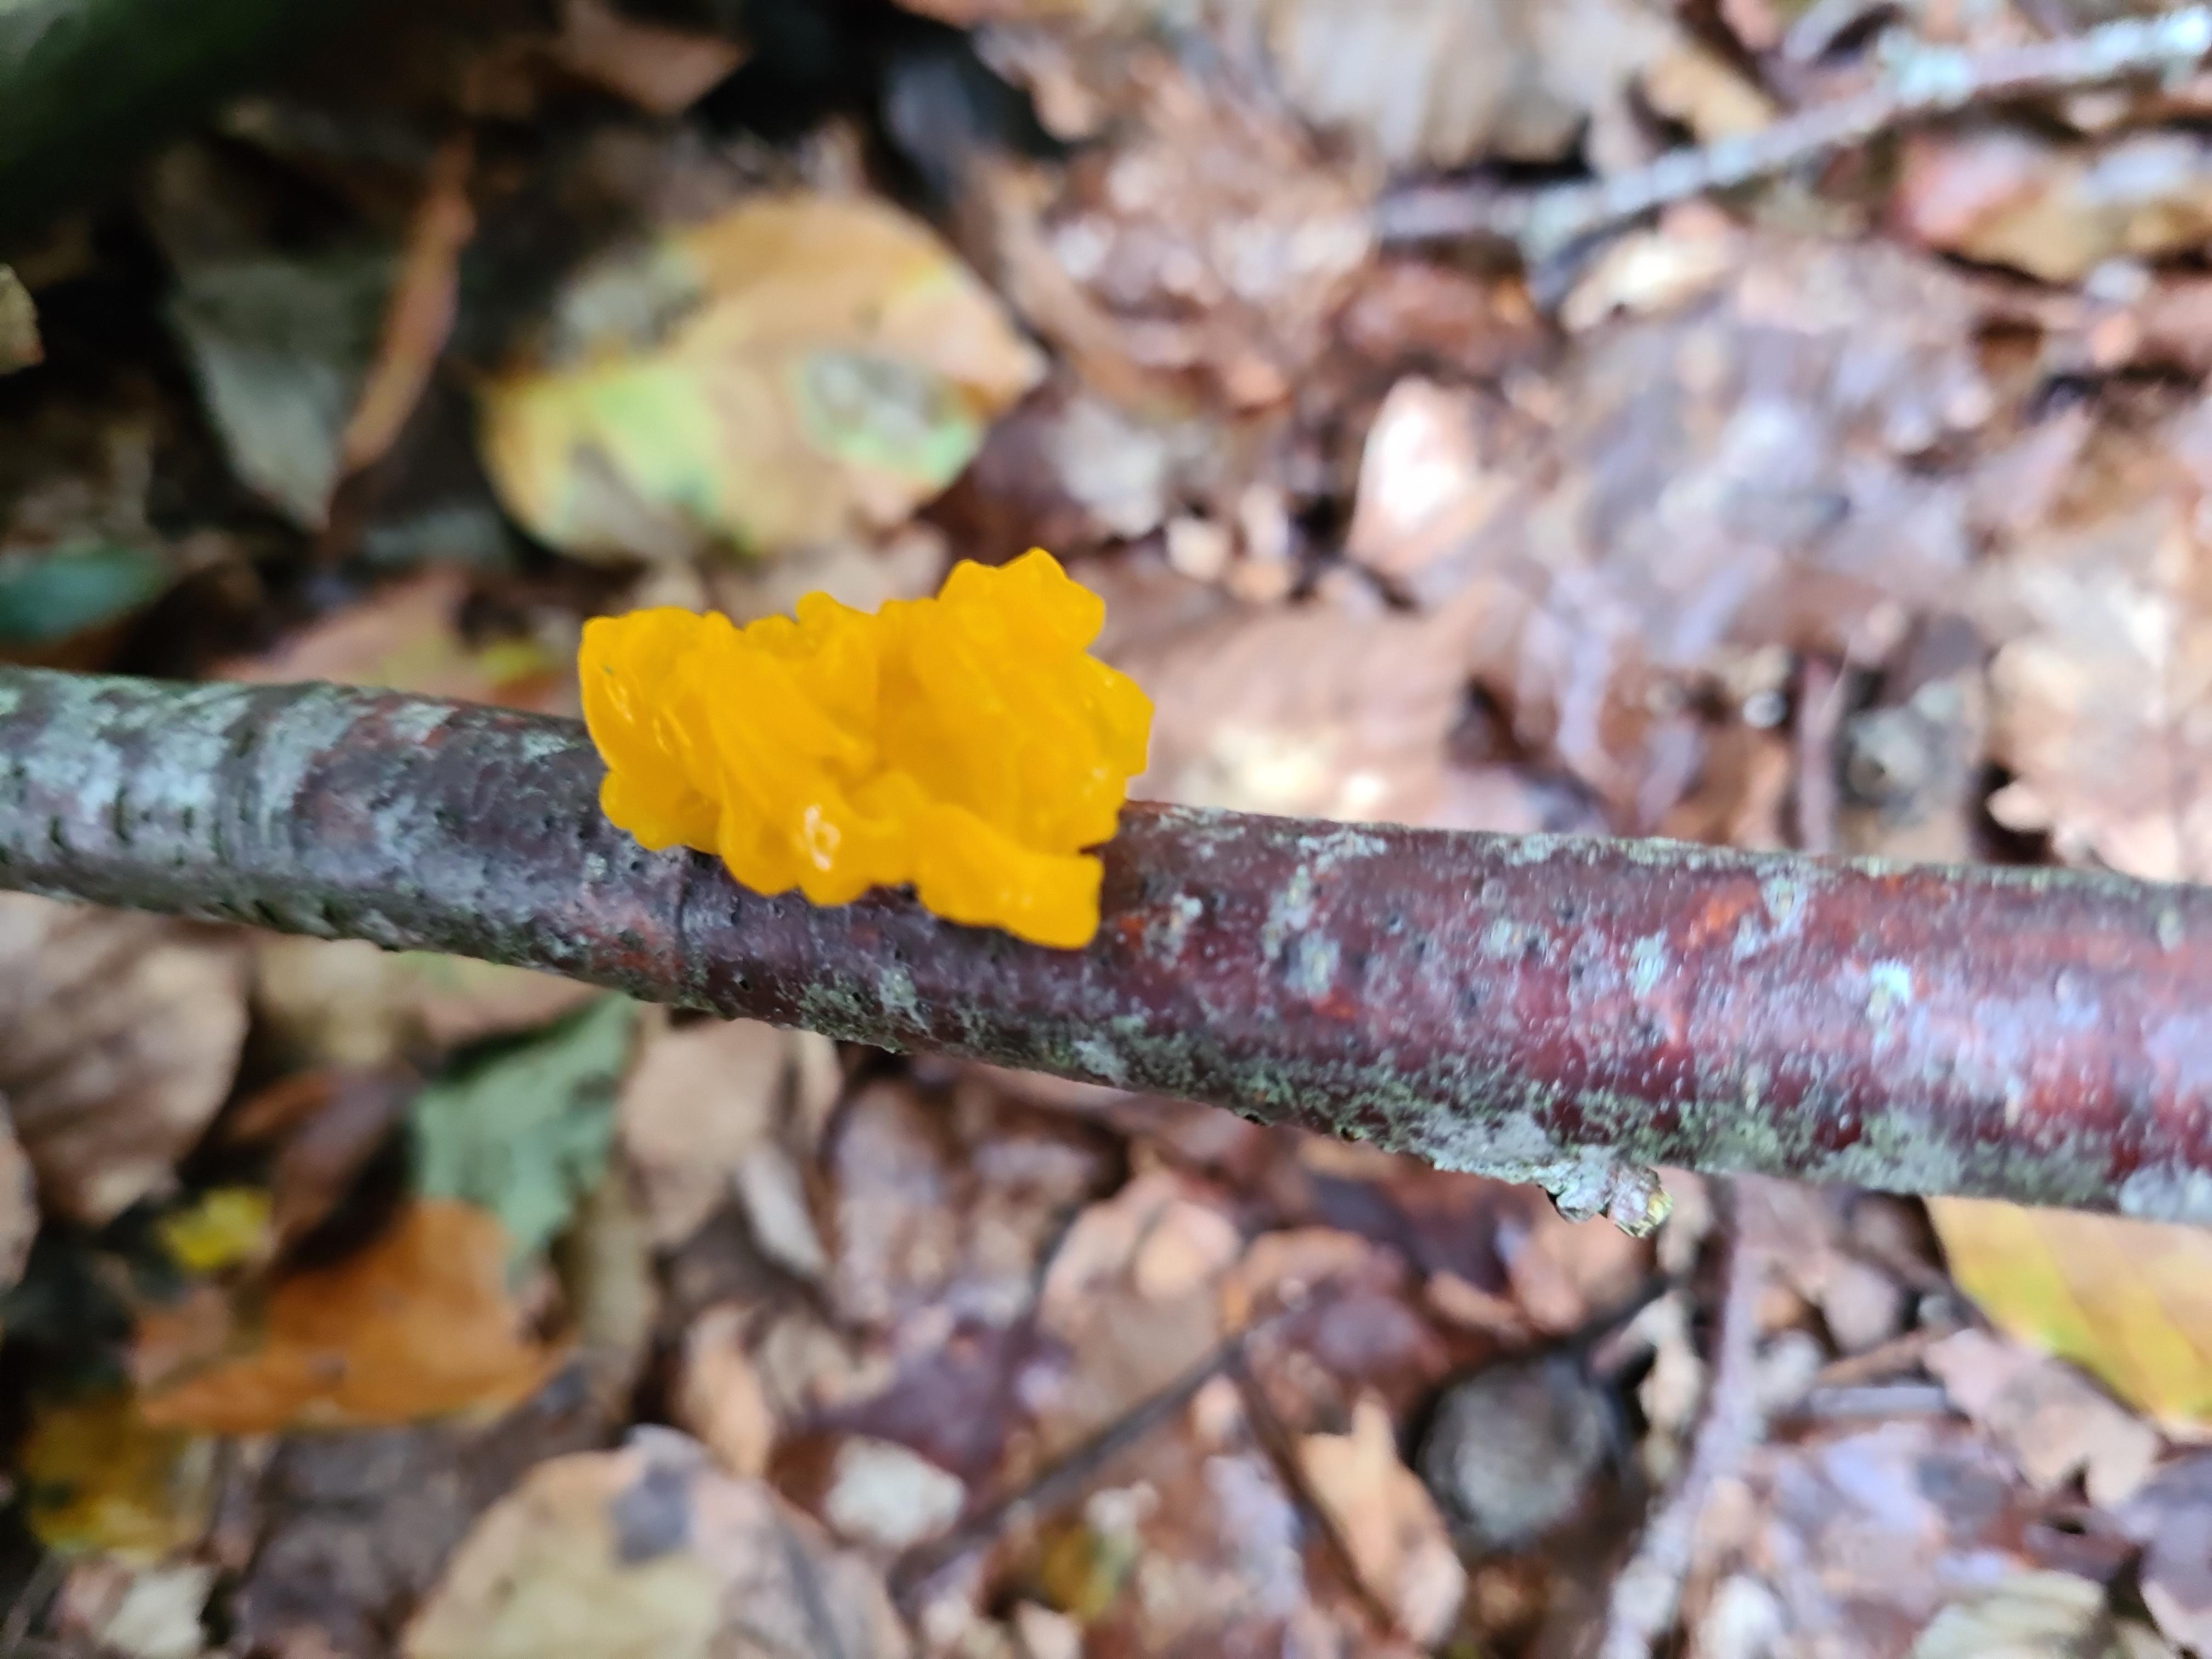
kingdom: Fungi
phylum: Basidiomycota
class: Tremellomycetes
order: Tremellales
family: Tremellaceae
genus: Tremella
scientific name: Tremella mesenterica
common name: gul bævresvamp
